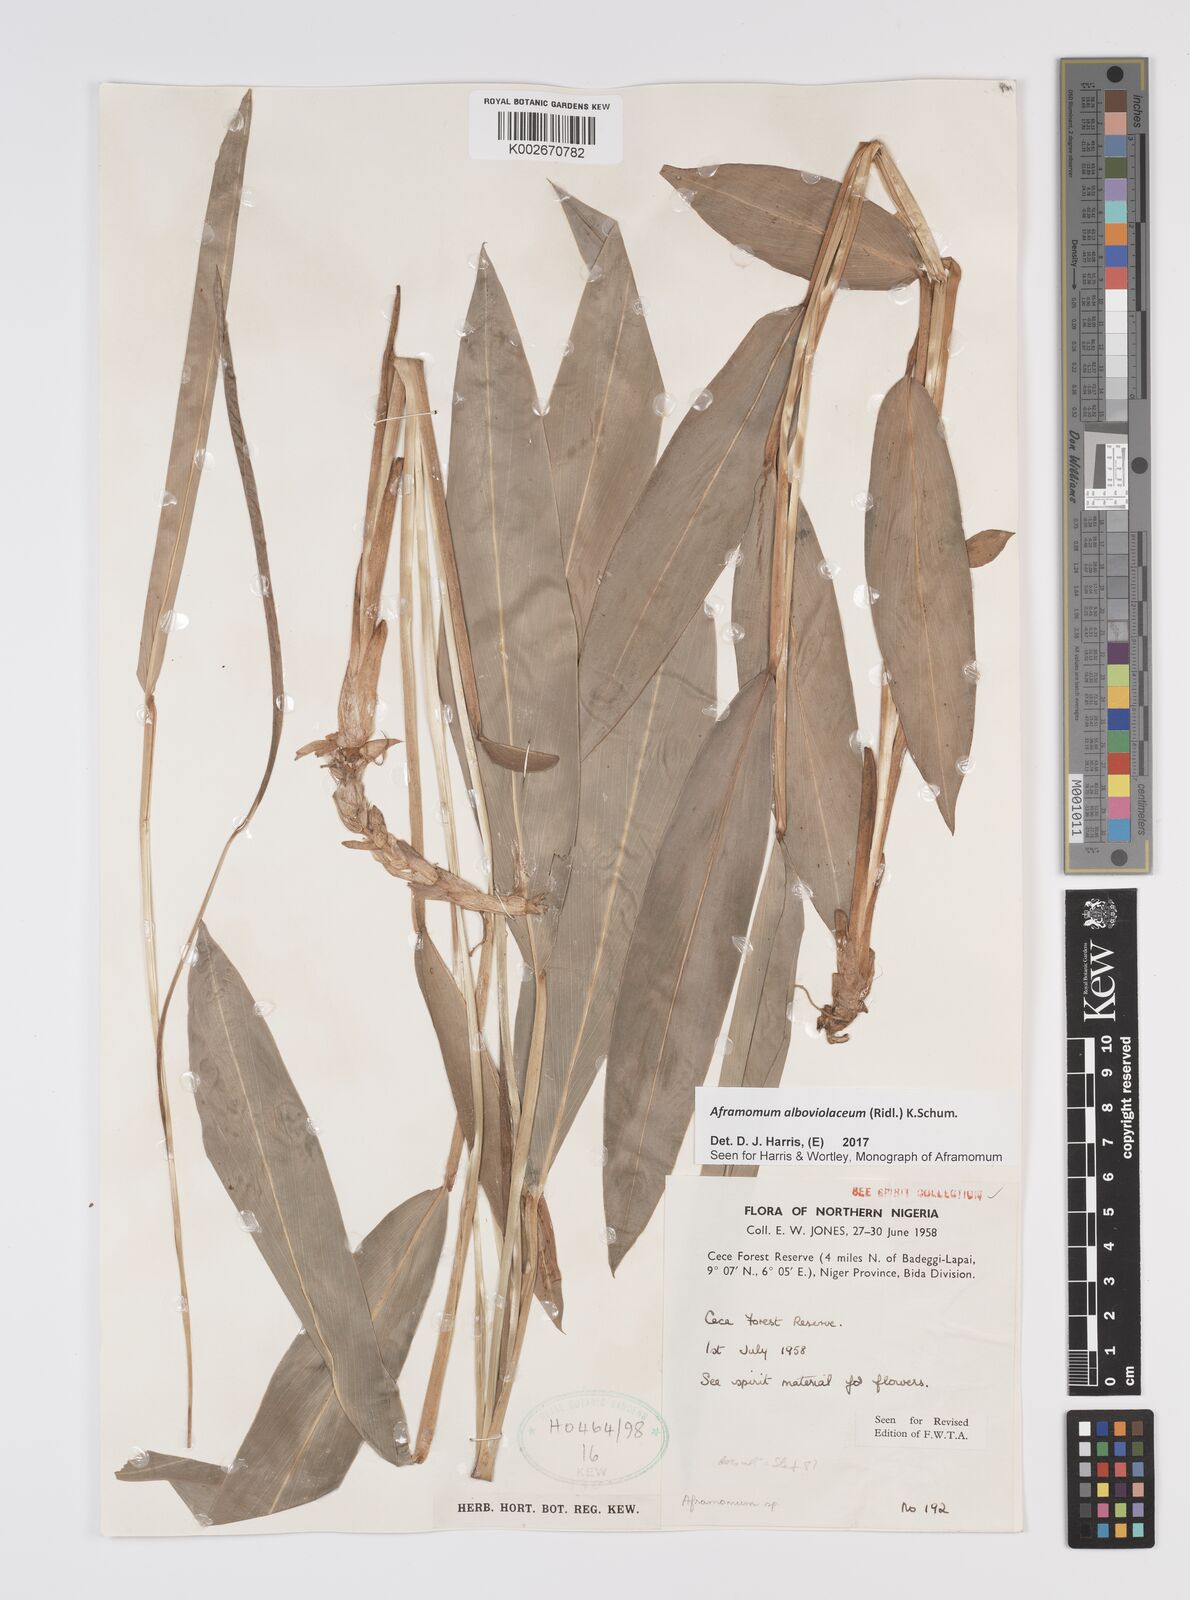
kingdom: Plantae
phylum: Tracheophyta
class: Liliopsida
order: Zingiberales
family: Zingiberaceae
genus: Aframomum
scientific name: Aframomum alboviolaceum
